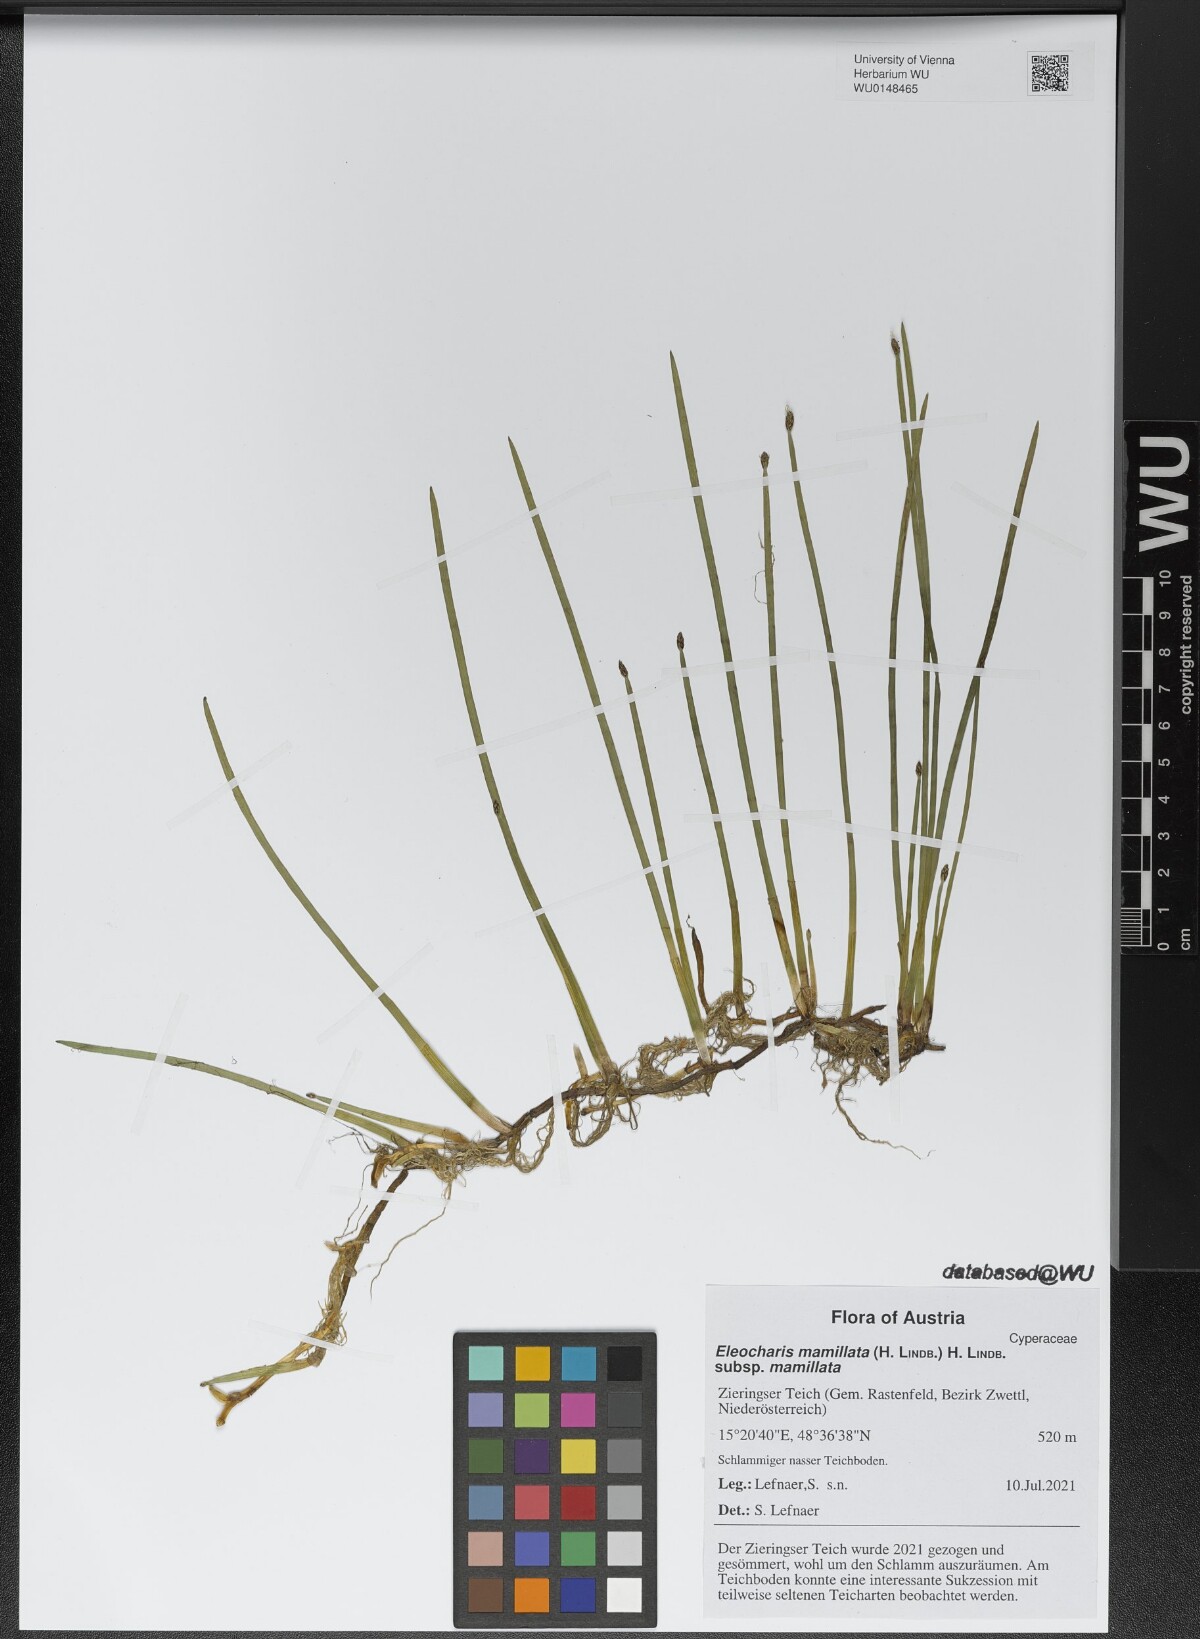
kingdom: Plantae
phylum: Tracheophyta
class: Liliopsida
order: Poales
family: Cyperaceae
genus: Eleocharis
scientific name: Eleocharis mamillata
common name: Northern spike-rush
